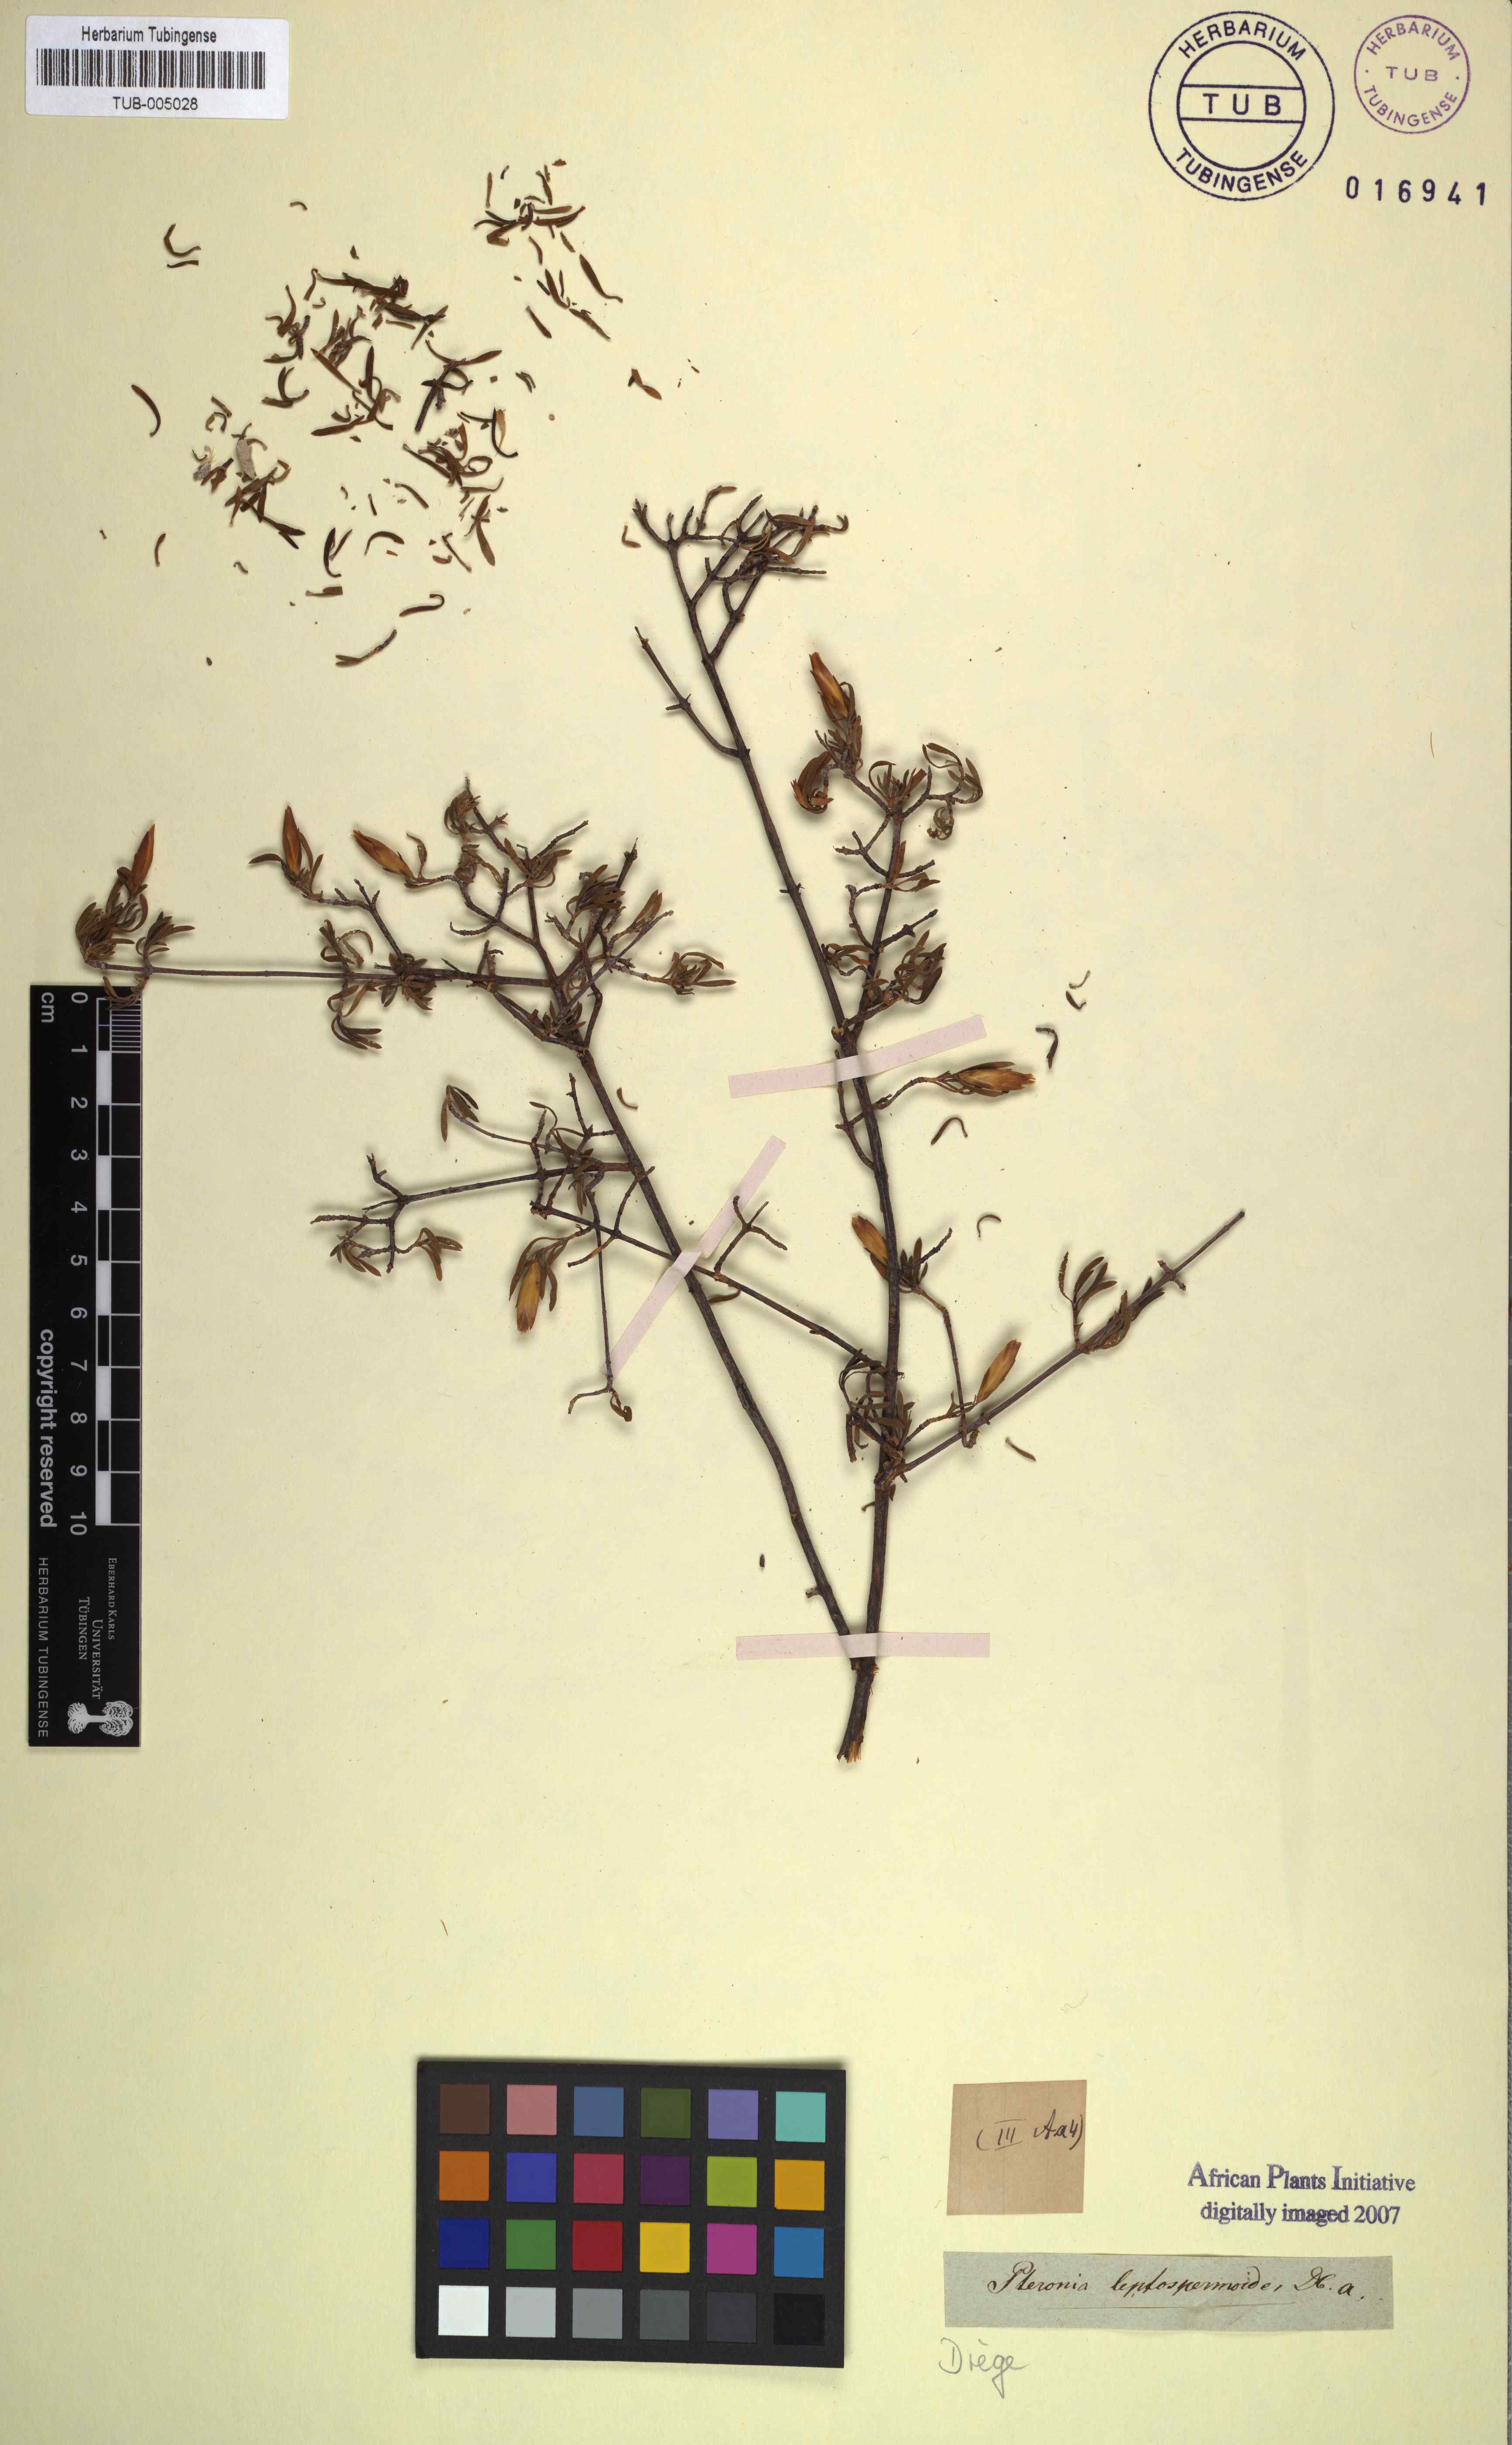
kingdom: Plantae
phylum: Tracheophyta
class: Magnoliopsida
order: Asterales
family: Asteraceae
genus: Pteronia
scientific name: Pteronia leptospermoides
